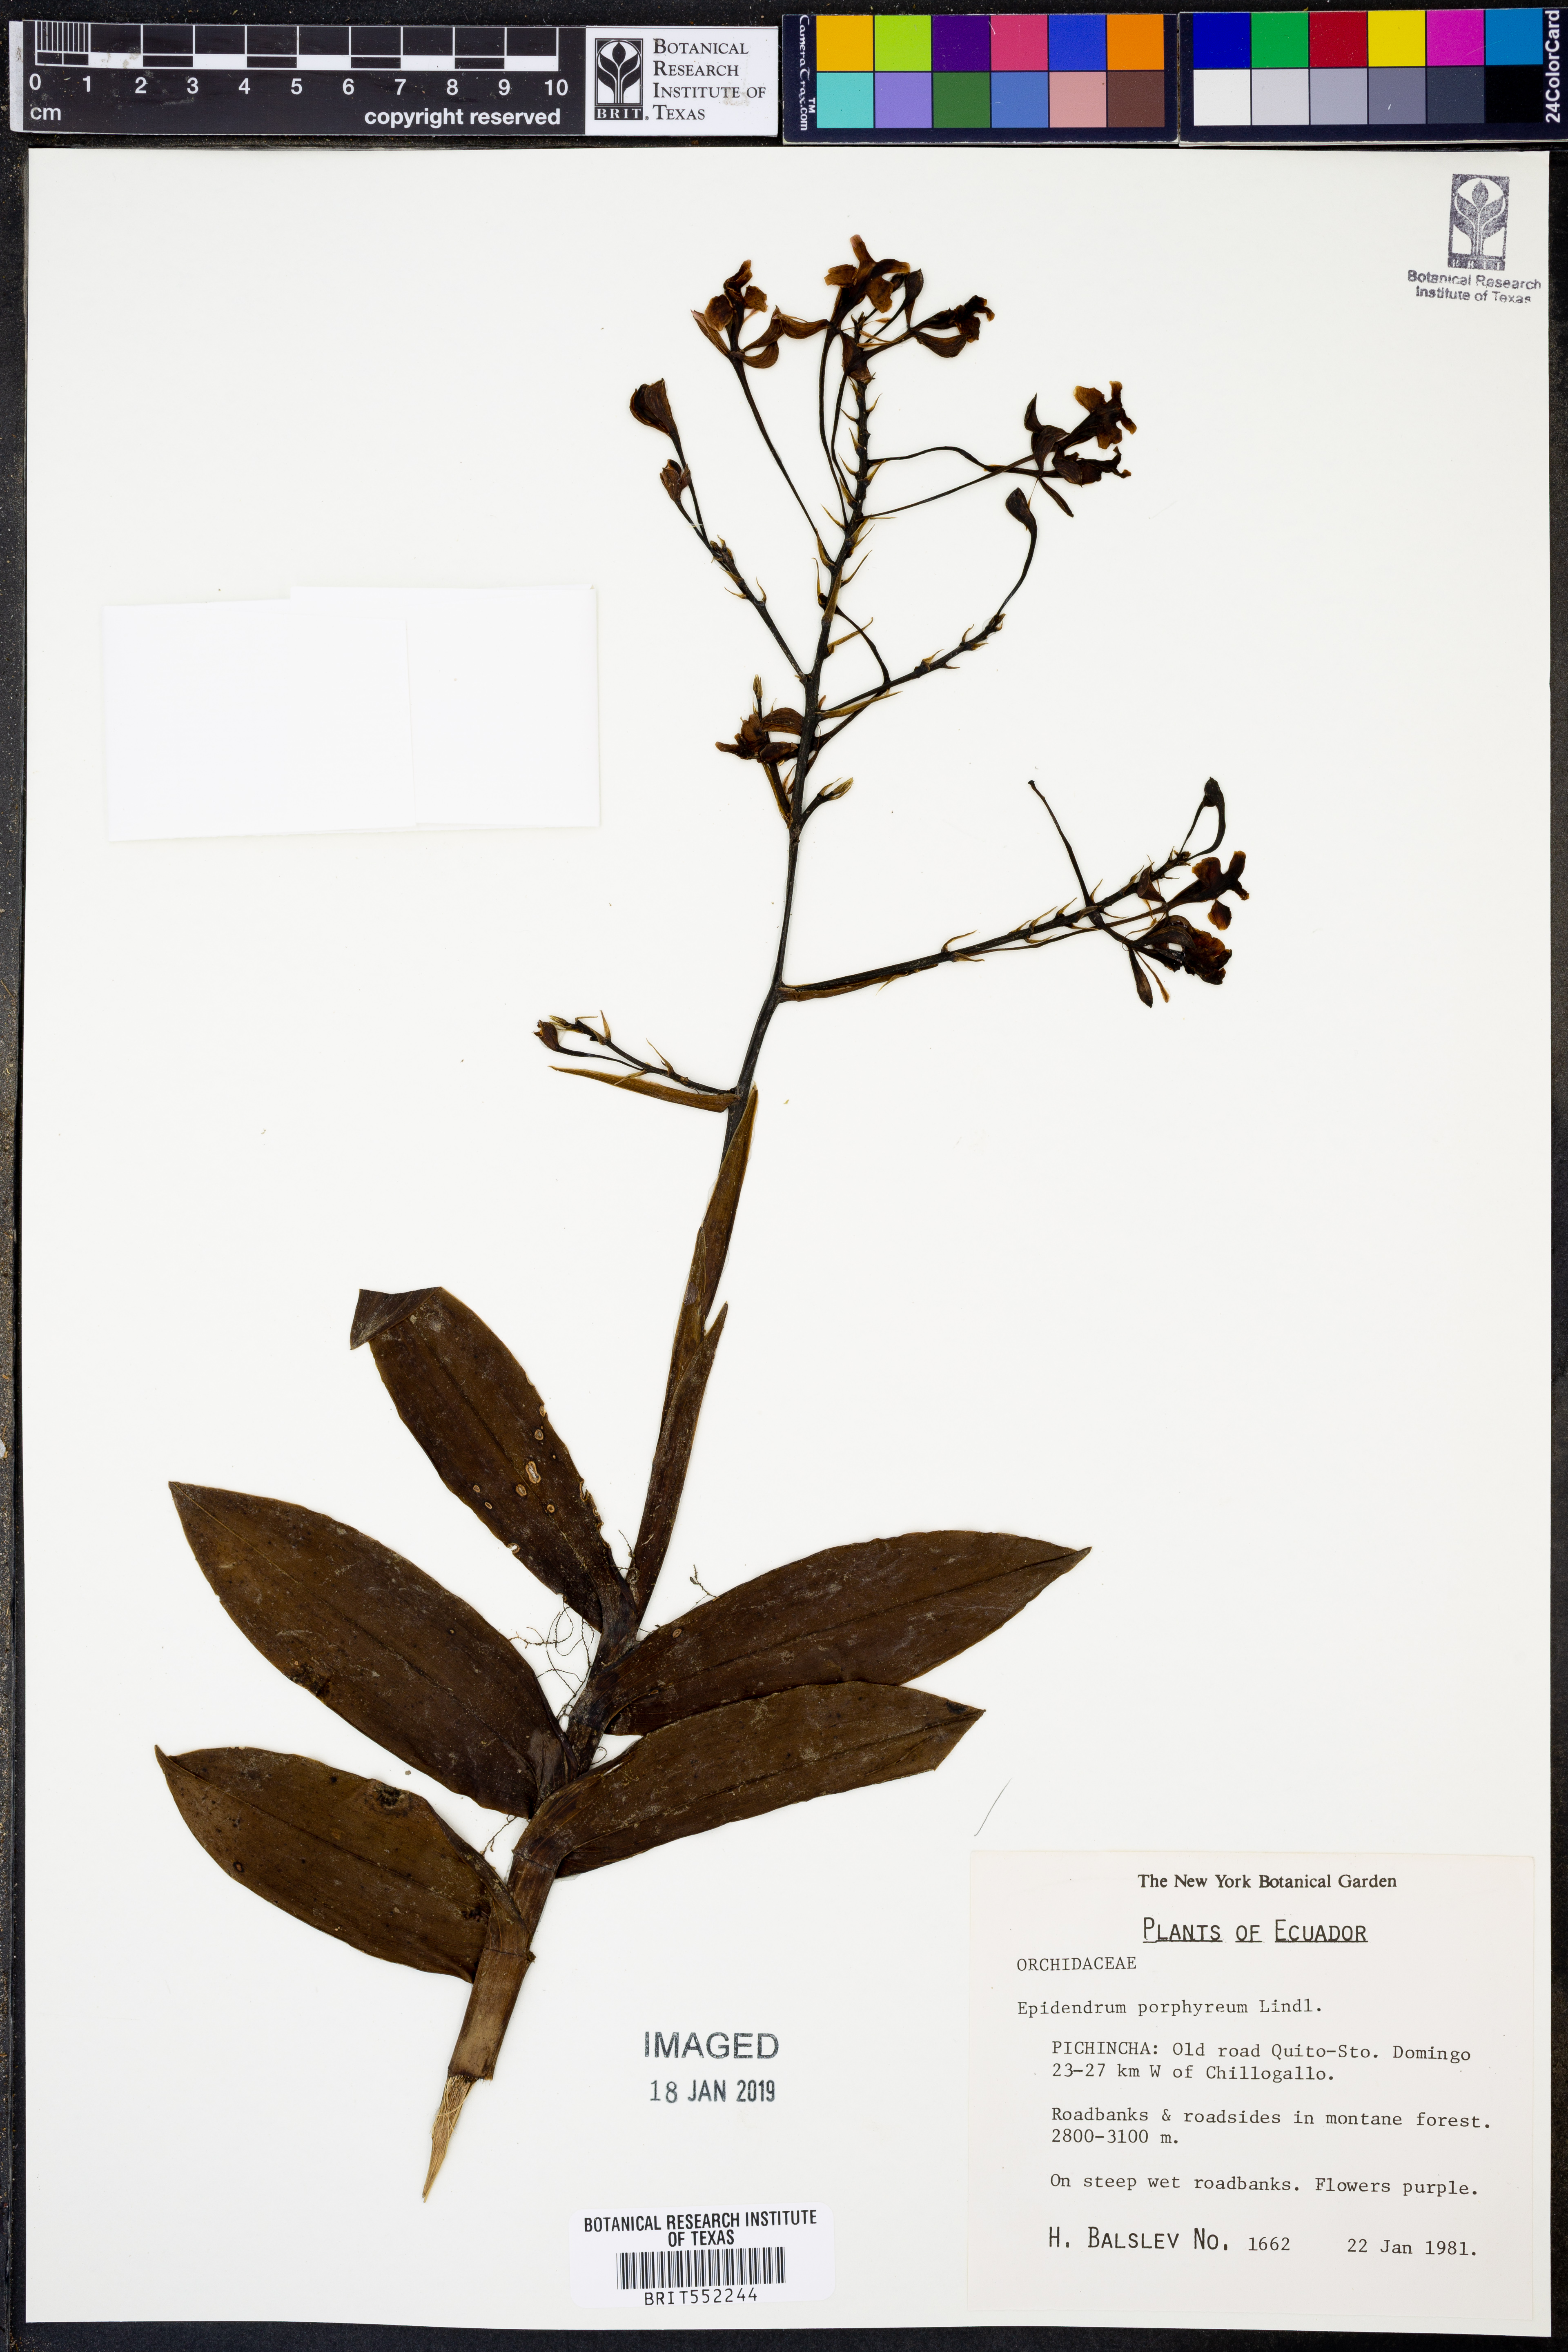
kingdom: Plantae
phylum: Tracheophyta
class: Liliopsida
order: Asparagales
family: Orchidaceae
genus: Epidendrum
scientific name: Epidendrum porphyreum
